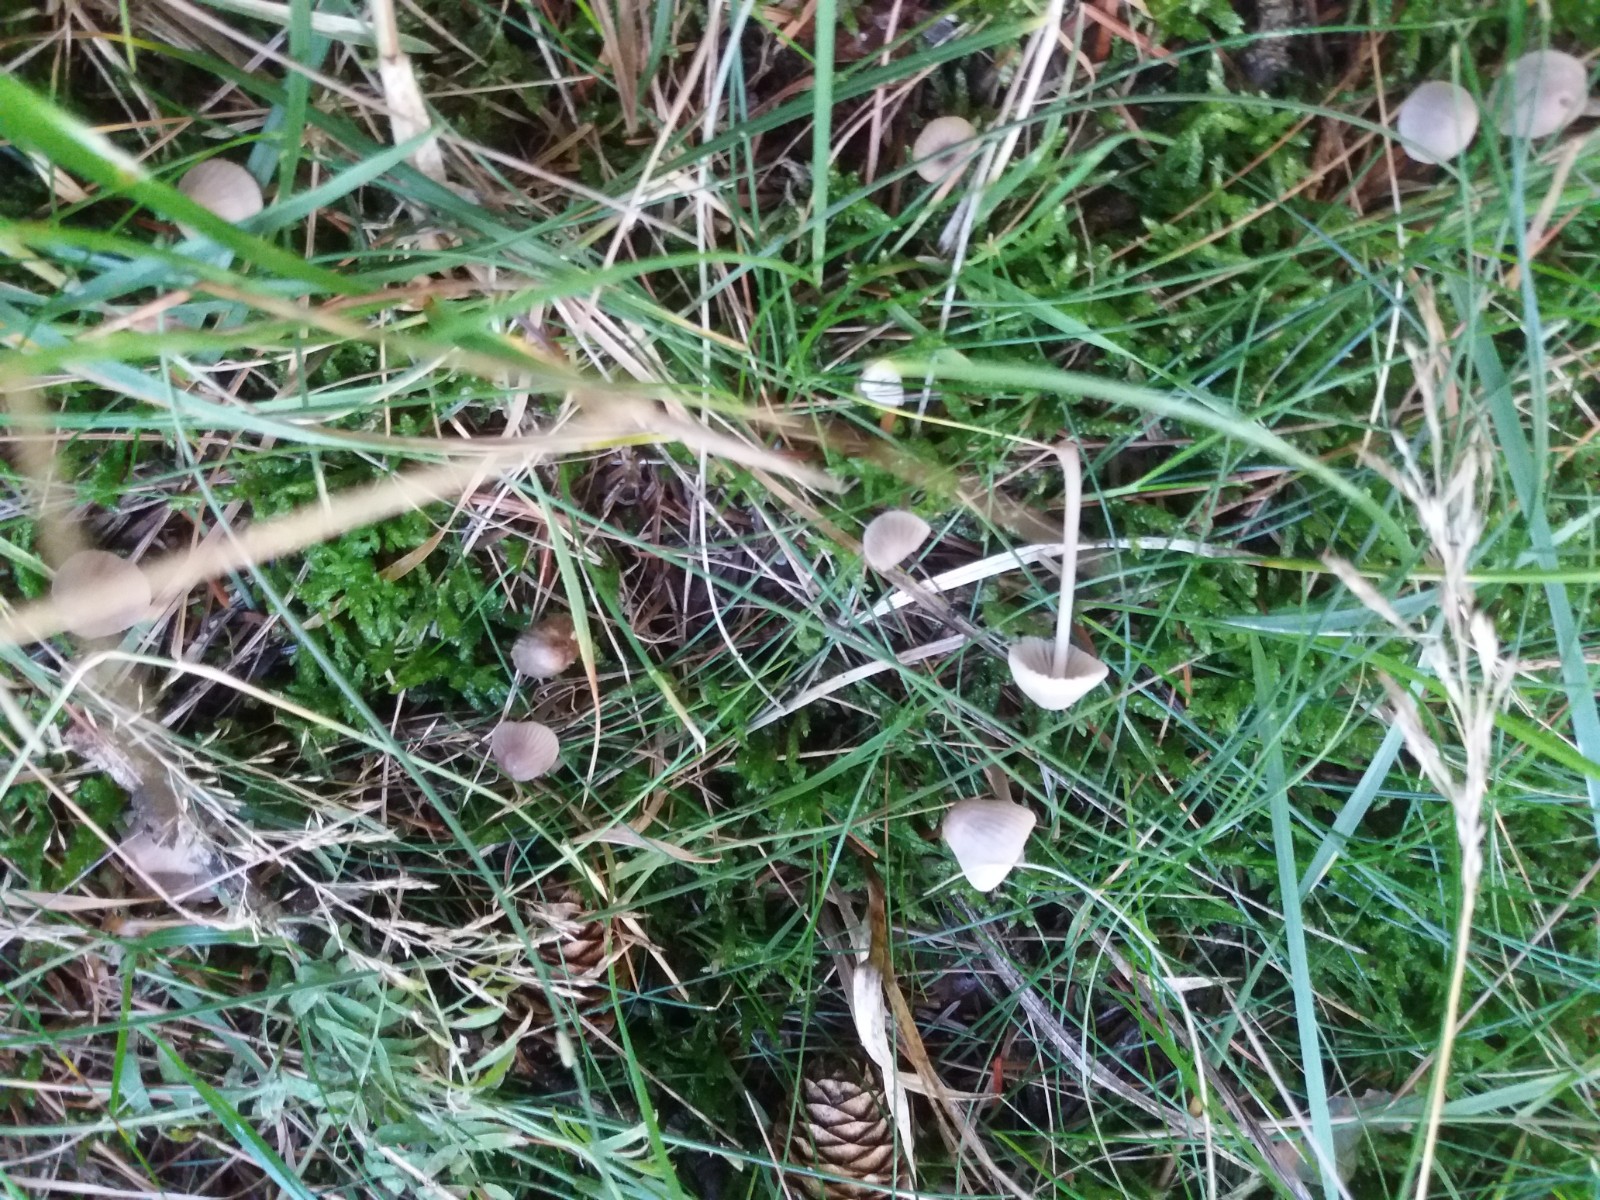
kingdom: Fungi
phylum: Basidiomycota
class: Agaricomycetes
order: Agaricales
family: Mycenaceae
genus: Mycena
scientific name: Mycena leptocephala
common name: klor-huesvamp
